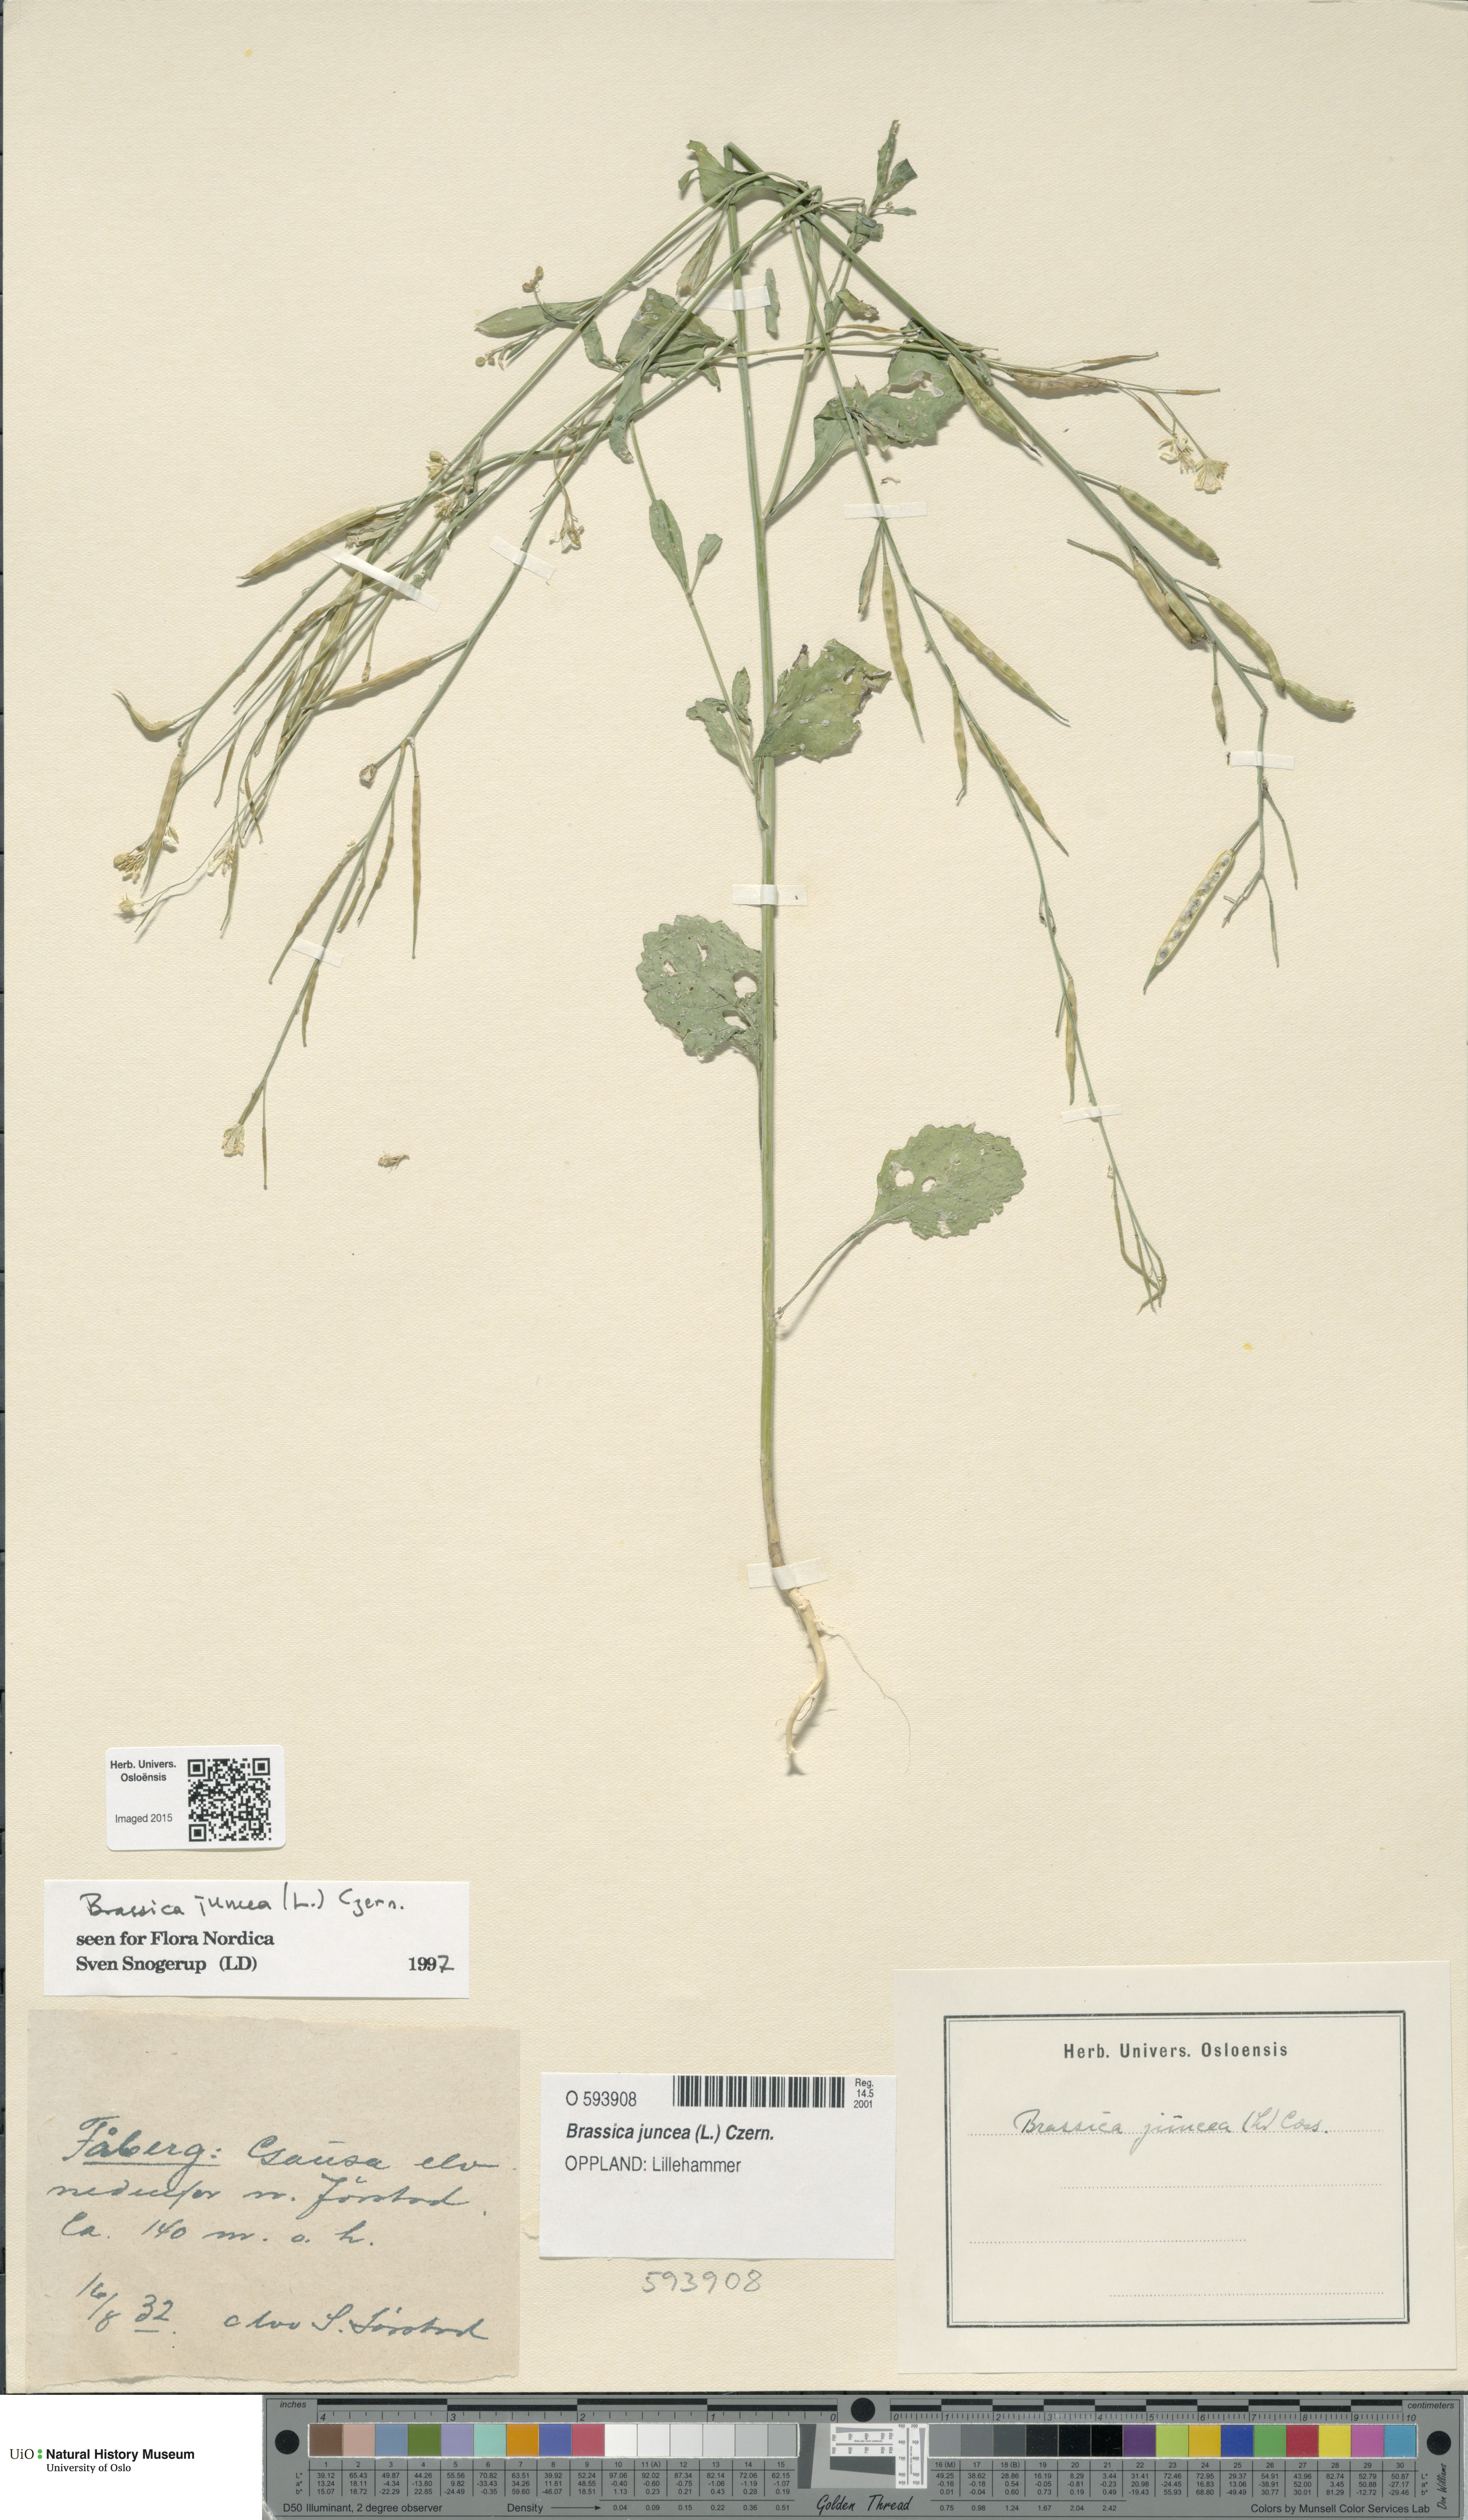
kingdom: Plantae
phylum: Tracheophyta
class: Magnoliopsida
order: Brassicales
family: Brassicaceae
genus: Brassica
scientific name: Brassica juncea
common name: Brown mustard
